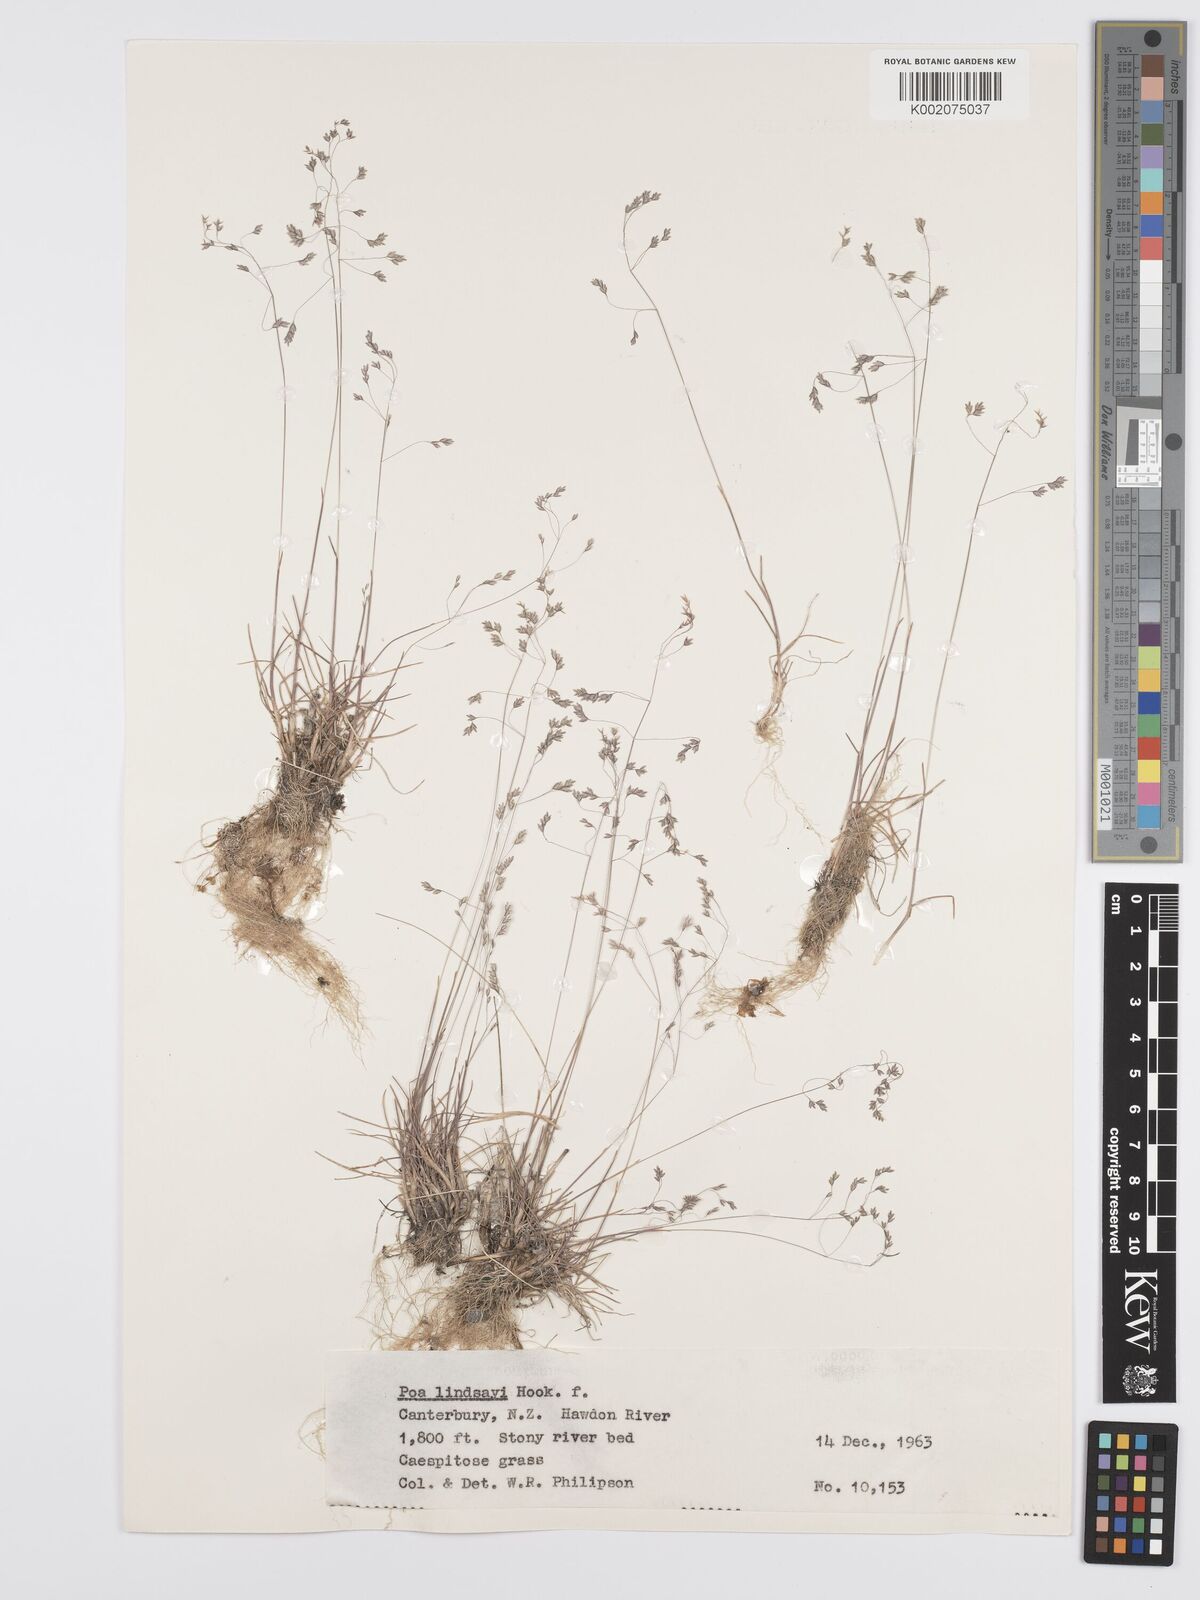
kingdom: Plantae
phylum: Tracheophyta
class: Liliopsida
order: Poales
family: Poaceae
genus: Poa
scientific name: Poa lindsayi
